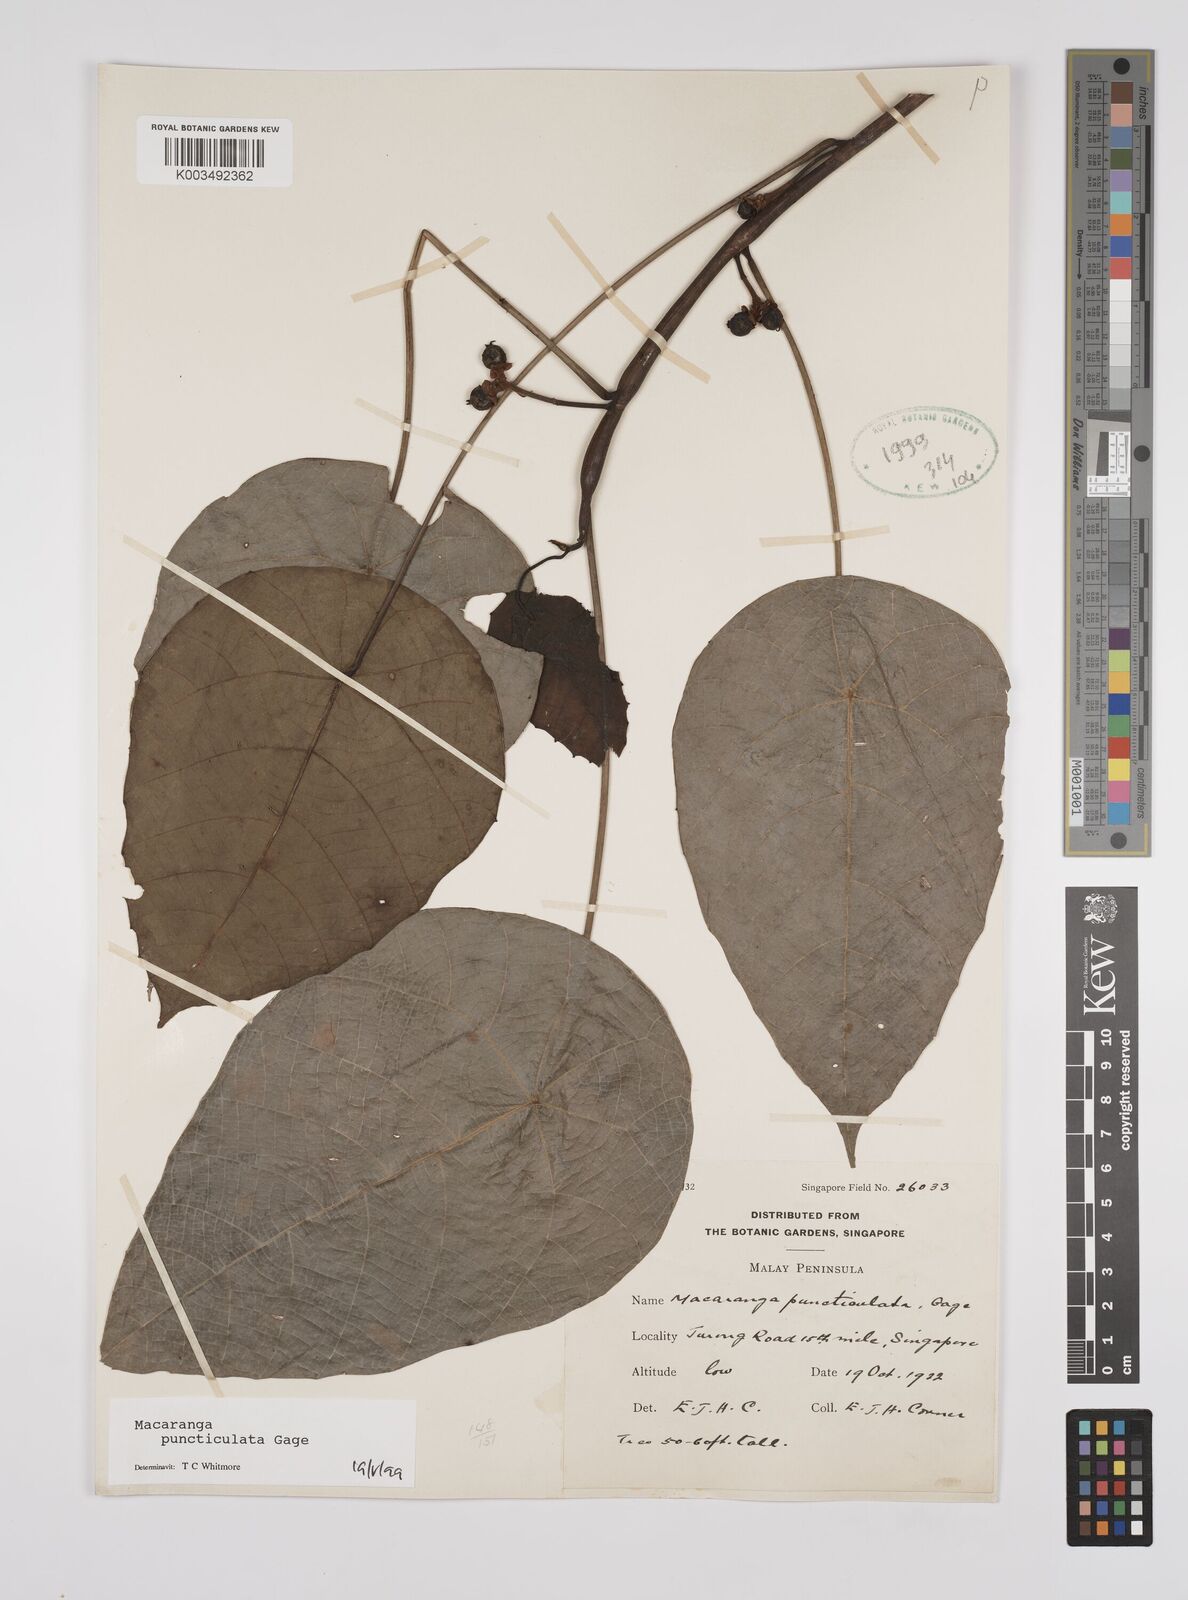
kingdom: Plantae
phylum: Tracheophyta
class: Magnoliopsida
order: Malpighiales
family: Euphorbiaceae
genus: Macaranga
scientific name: Macaranga puncticulata
